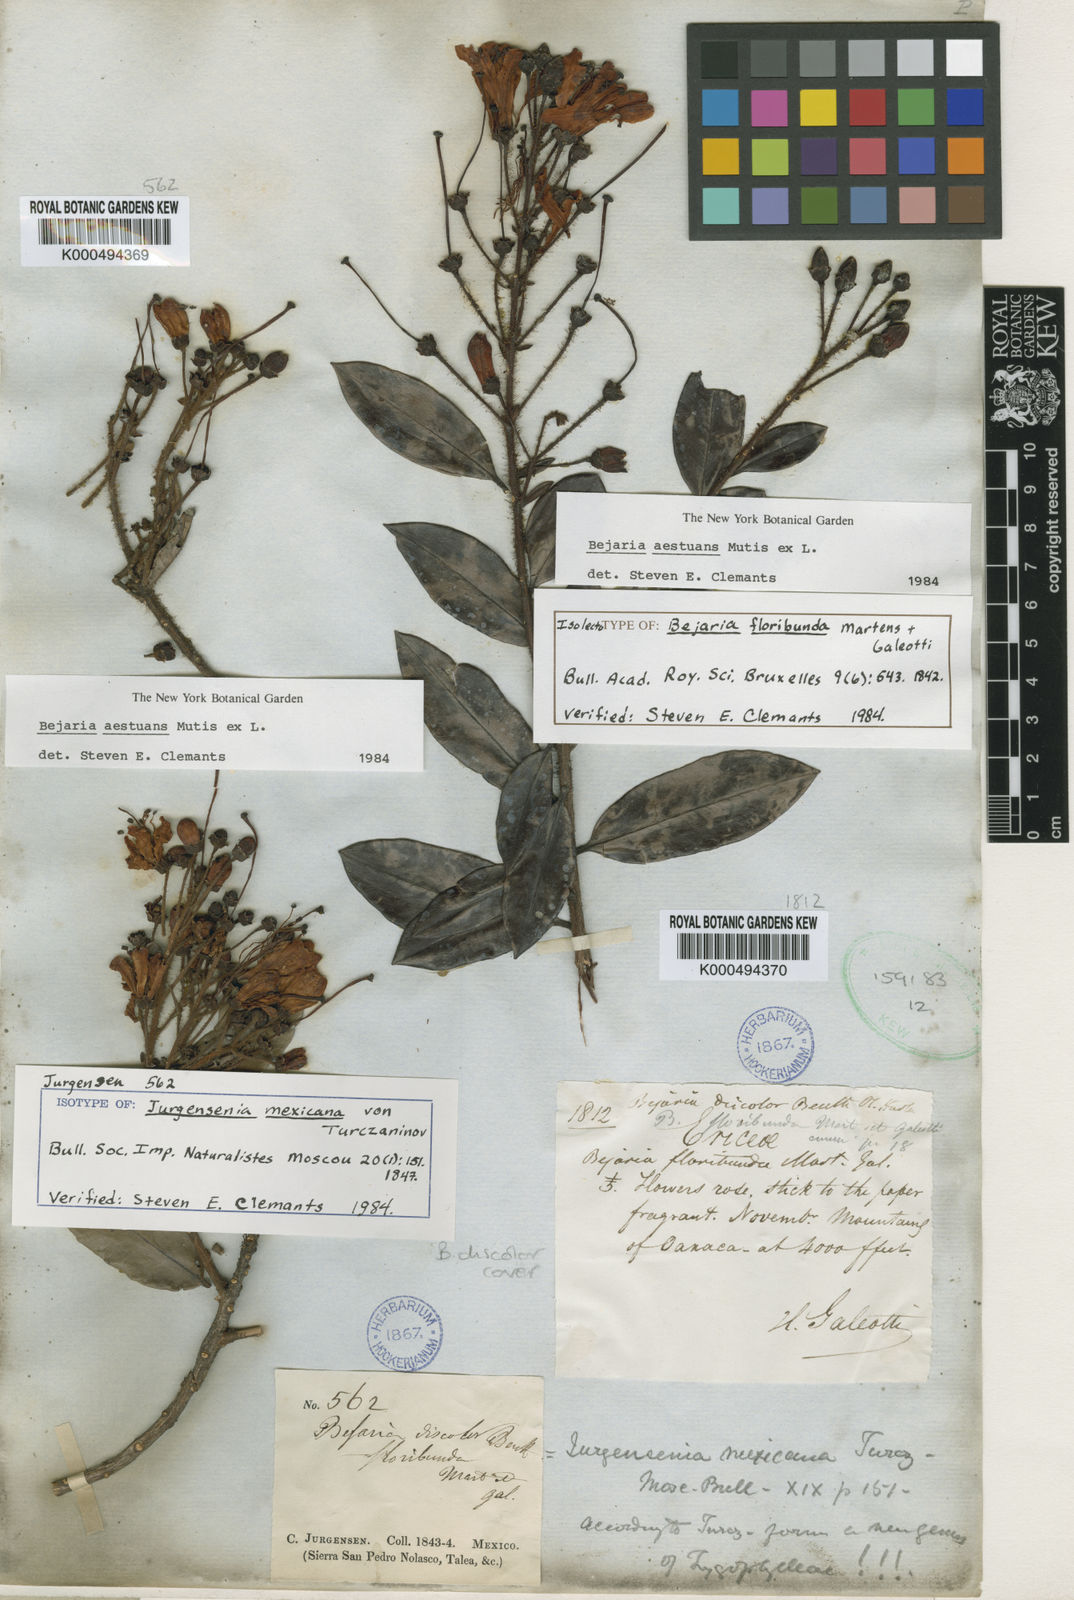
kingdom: Plantae
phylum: Tracheophyta
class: Magnoliopsida
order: Ericales
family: Ericaceae
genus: Bejaria
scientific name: Bejaria
